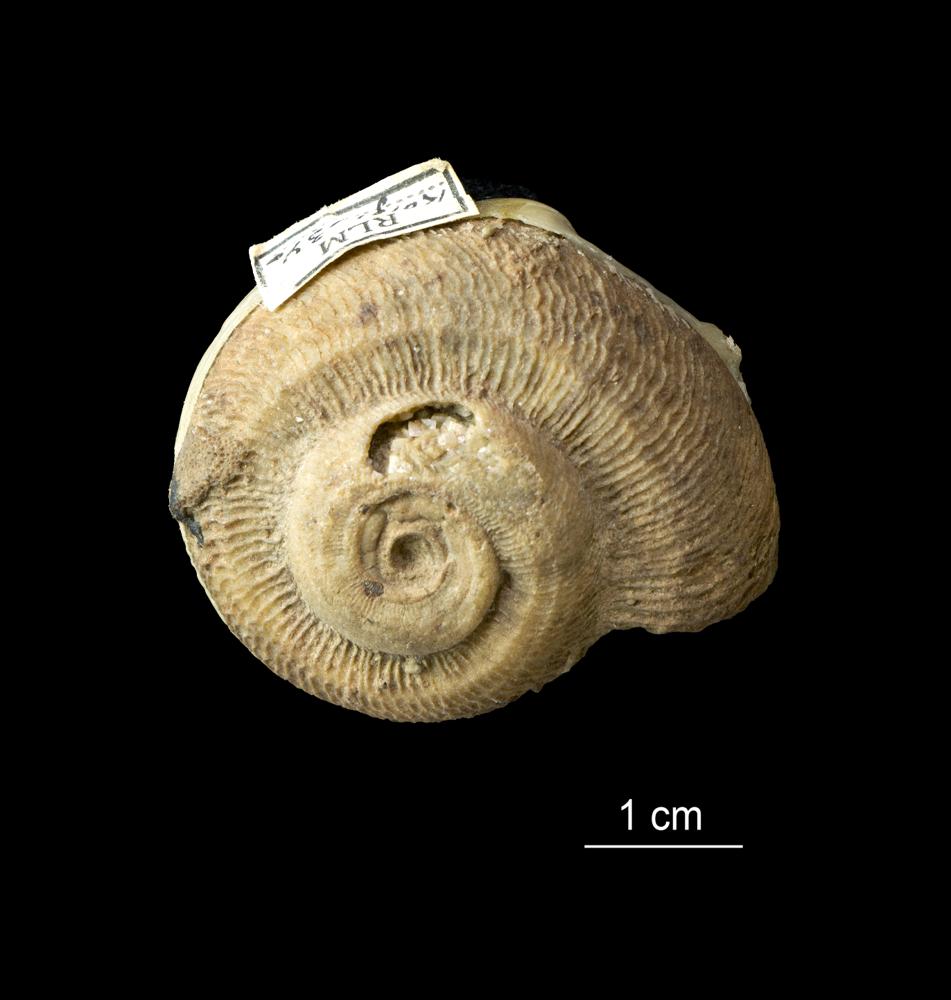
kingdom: Animalia
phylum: Mollusca
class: Gastropoda
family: Euomphalidae
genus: Euomphalus
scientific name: Euomphalus
